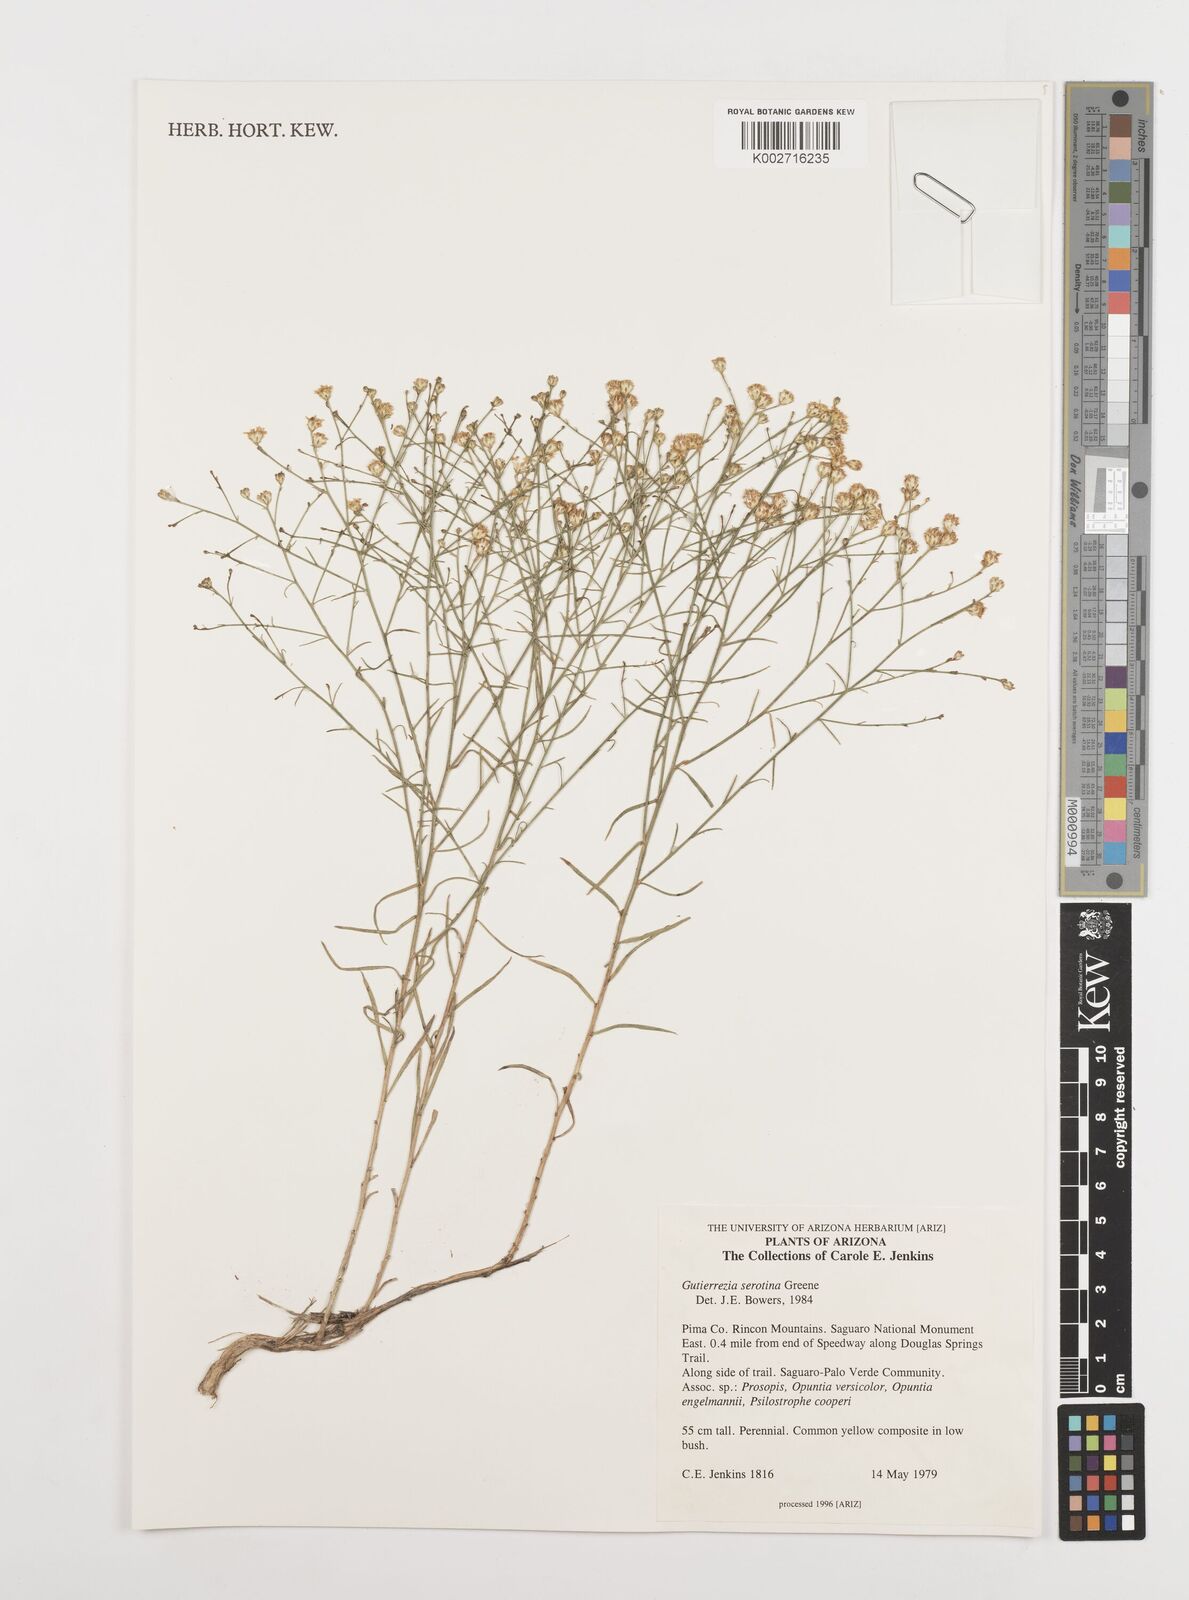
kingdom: Plantae
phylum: Tracheophyta
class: Magnoliopsida
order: Asterales
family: Asteraceae
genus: Gutierrezia
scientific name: Gutierrezia serotina
